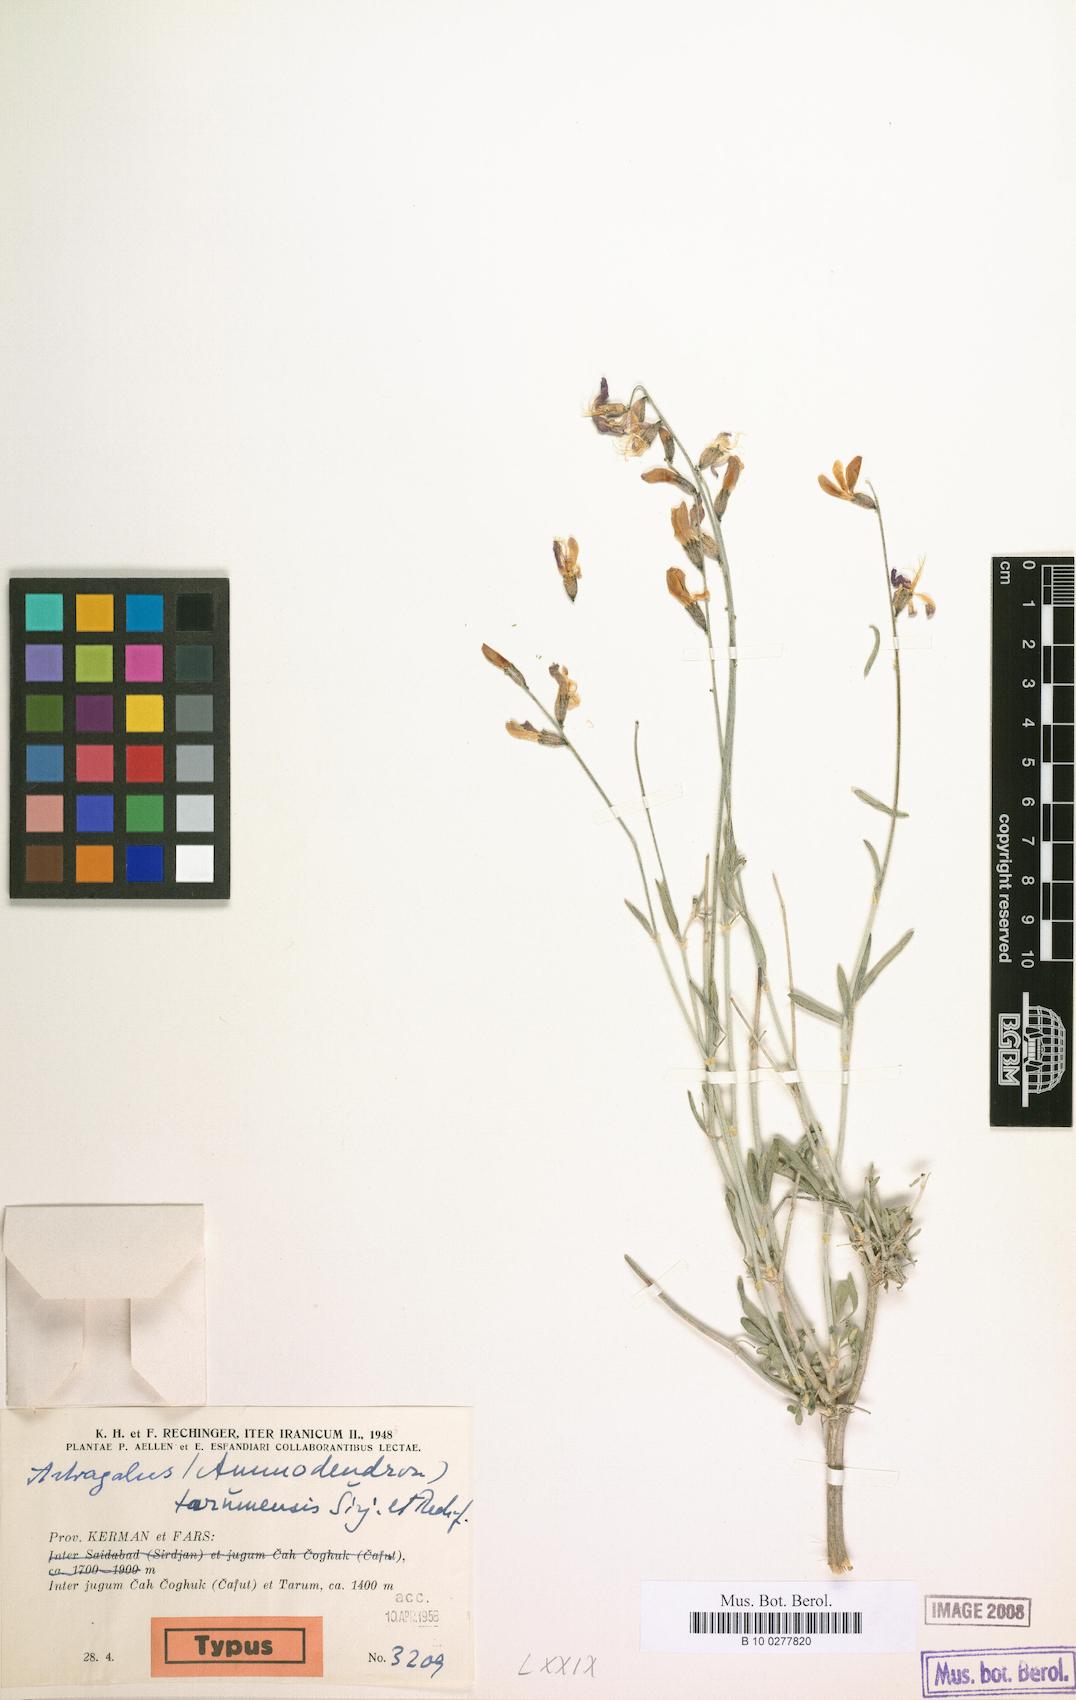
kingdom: Plantae
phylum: Tracheophyta
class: Magnoliopsida
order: Fabales
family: Fabaceae
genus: Astragalus
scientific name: Astragalus tarumensis
